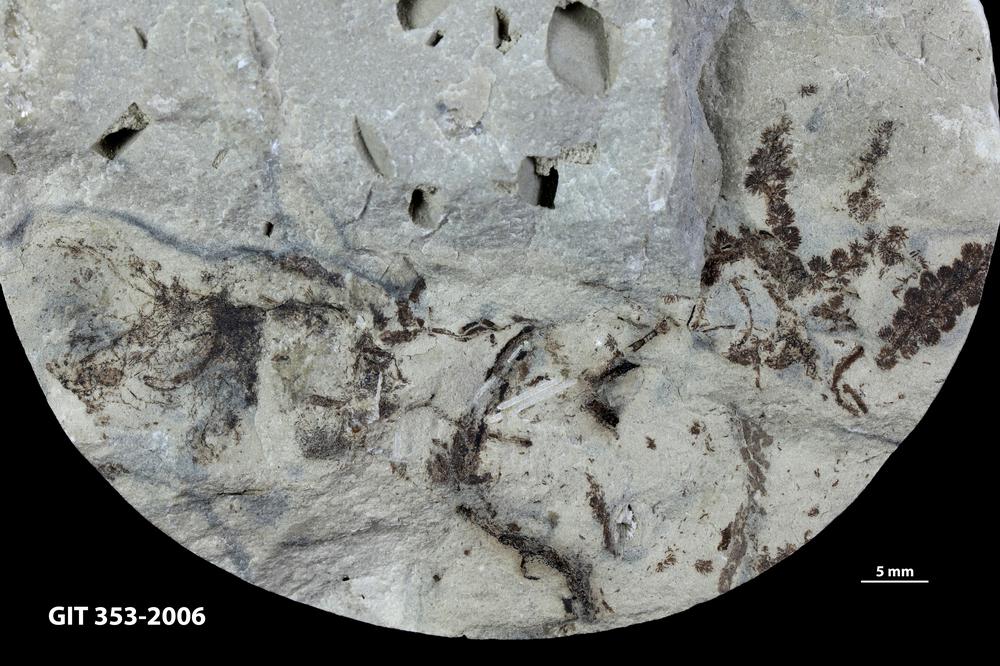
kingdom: Plantae
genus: Leveilleites
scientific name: Leveilleites hartnageli
